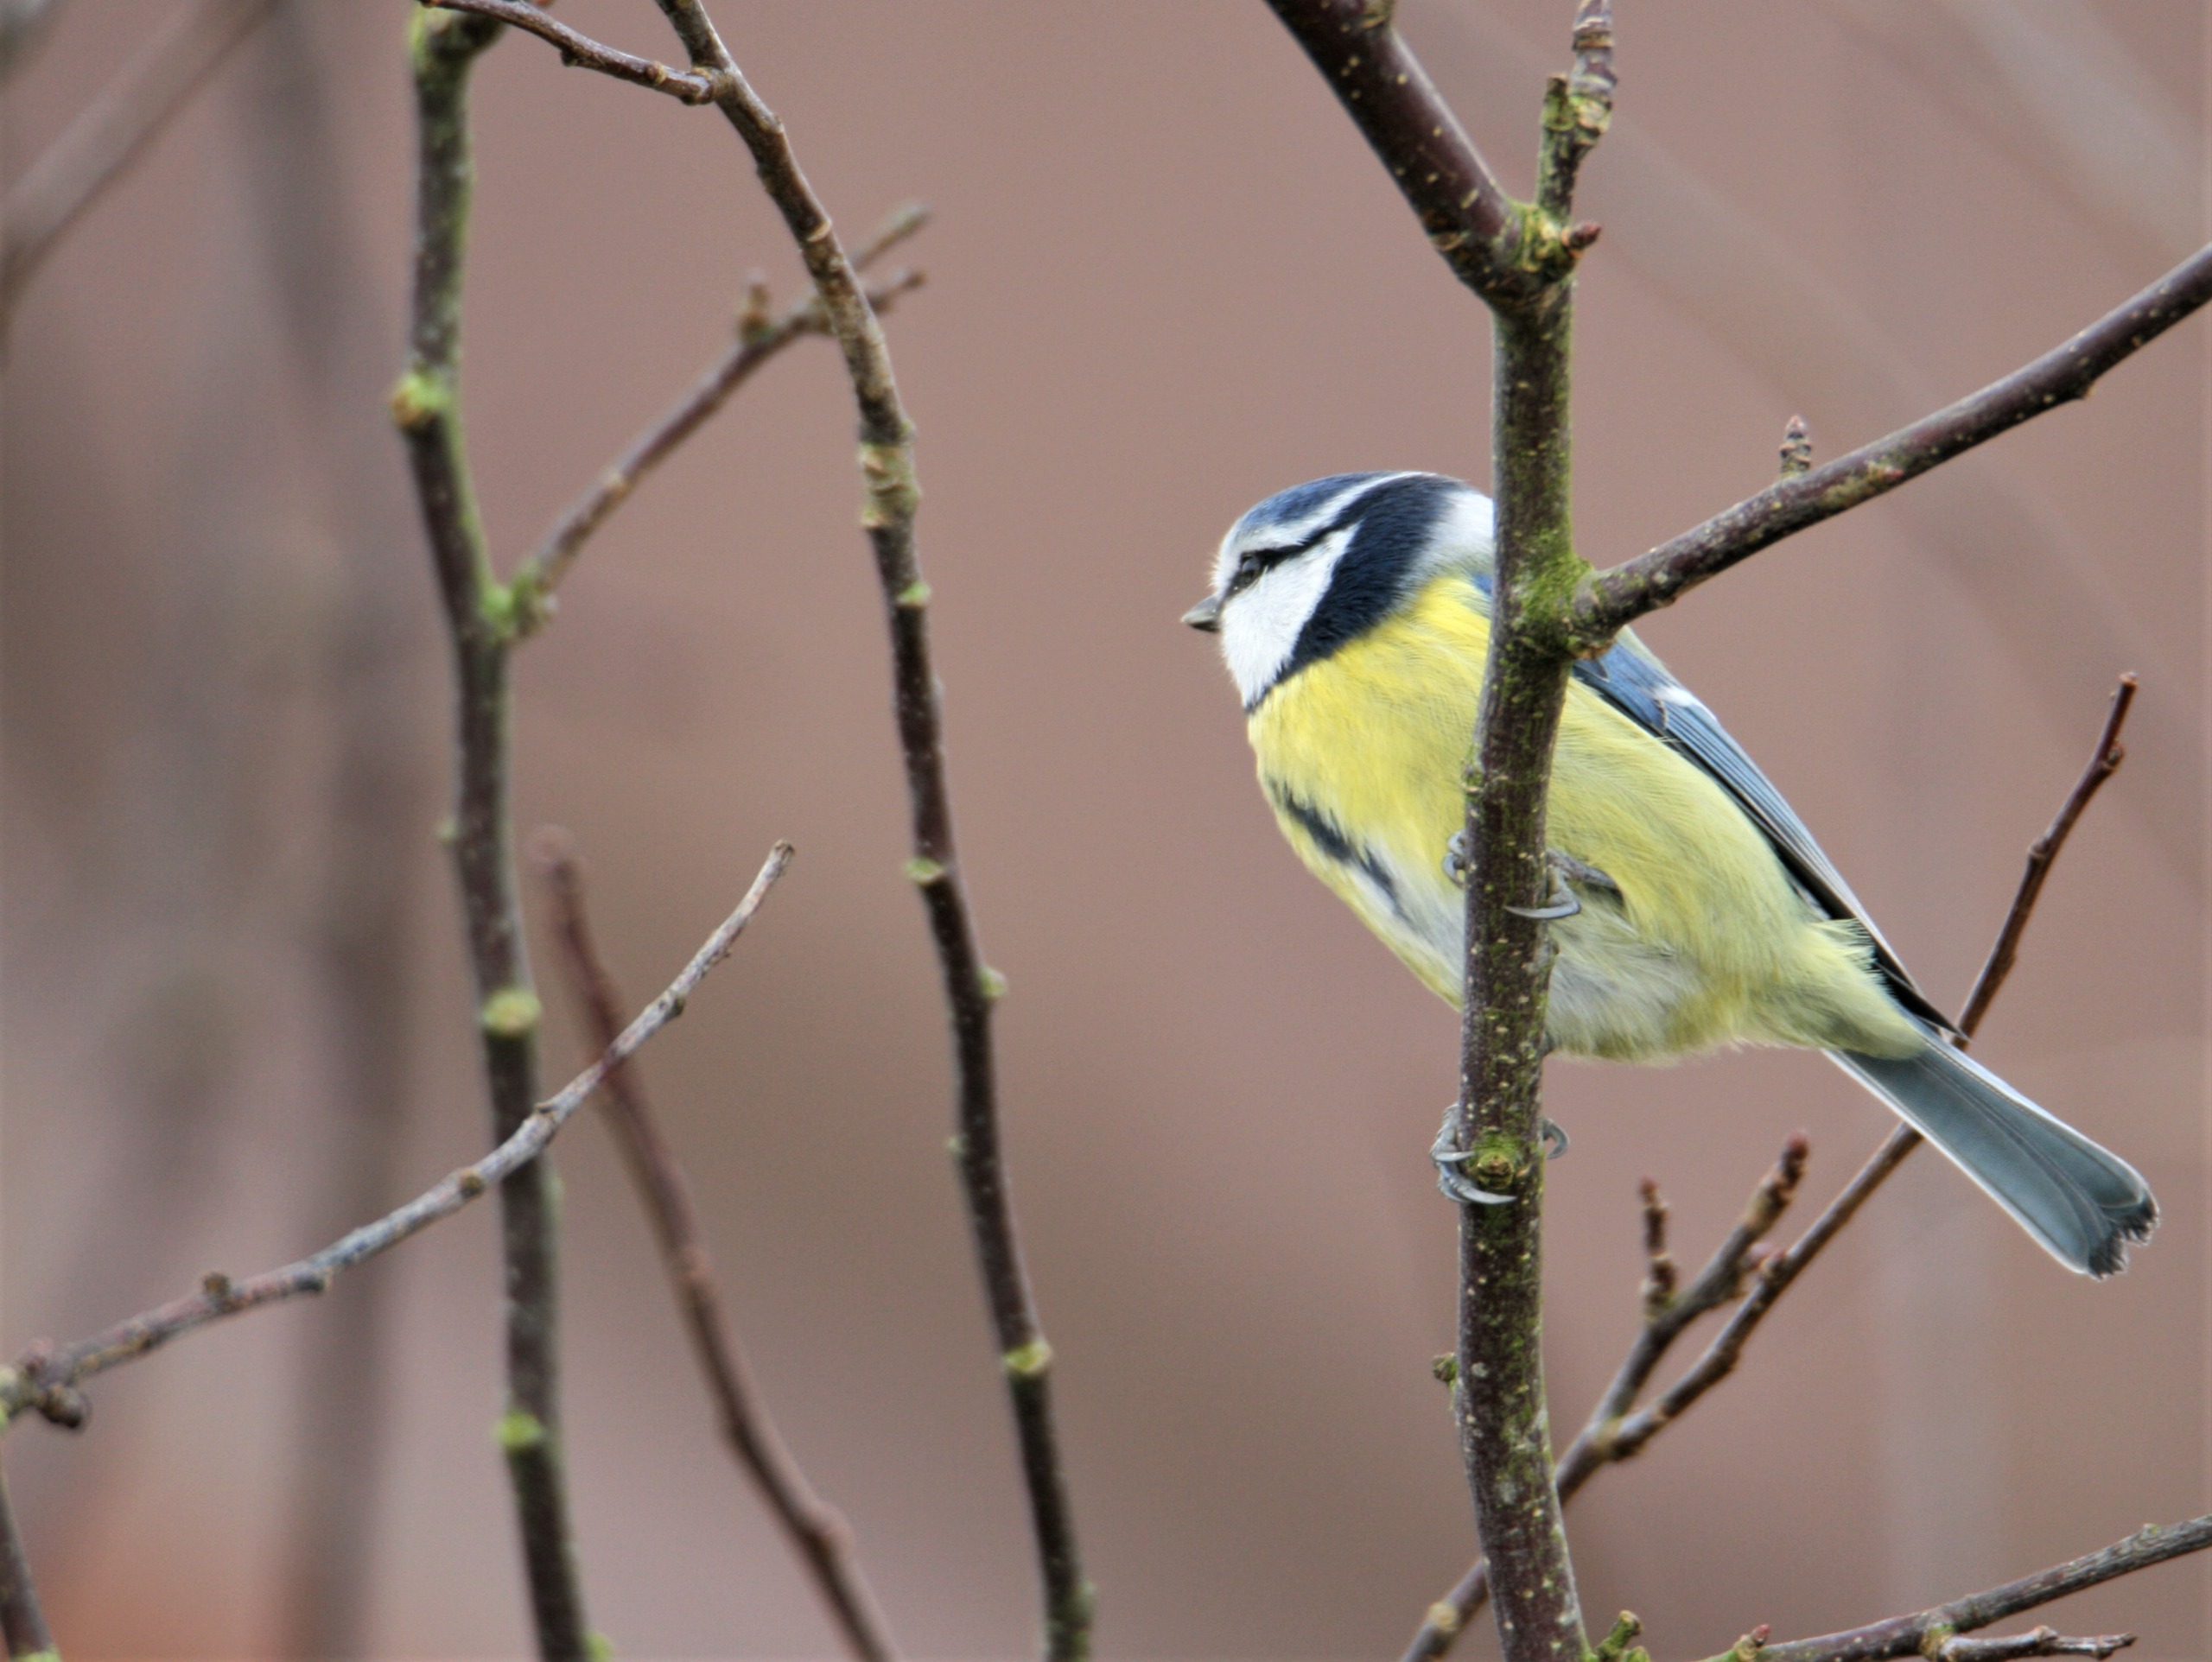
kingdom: Animalia
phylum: Chordata
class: Aves
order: Passeriformes
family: Paridae
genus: Cyanistes
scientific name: Cyanistes caeruleus
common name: Blåmejse
